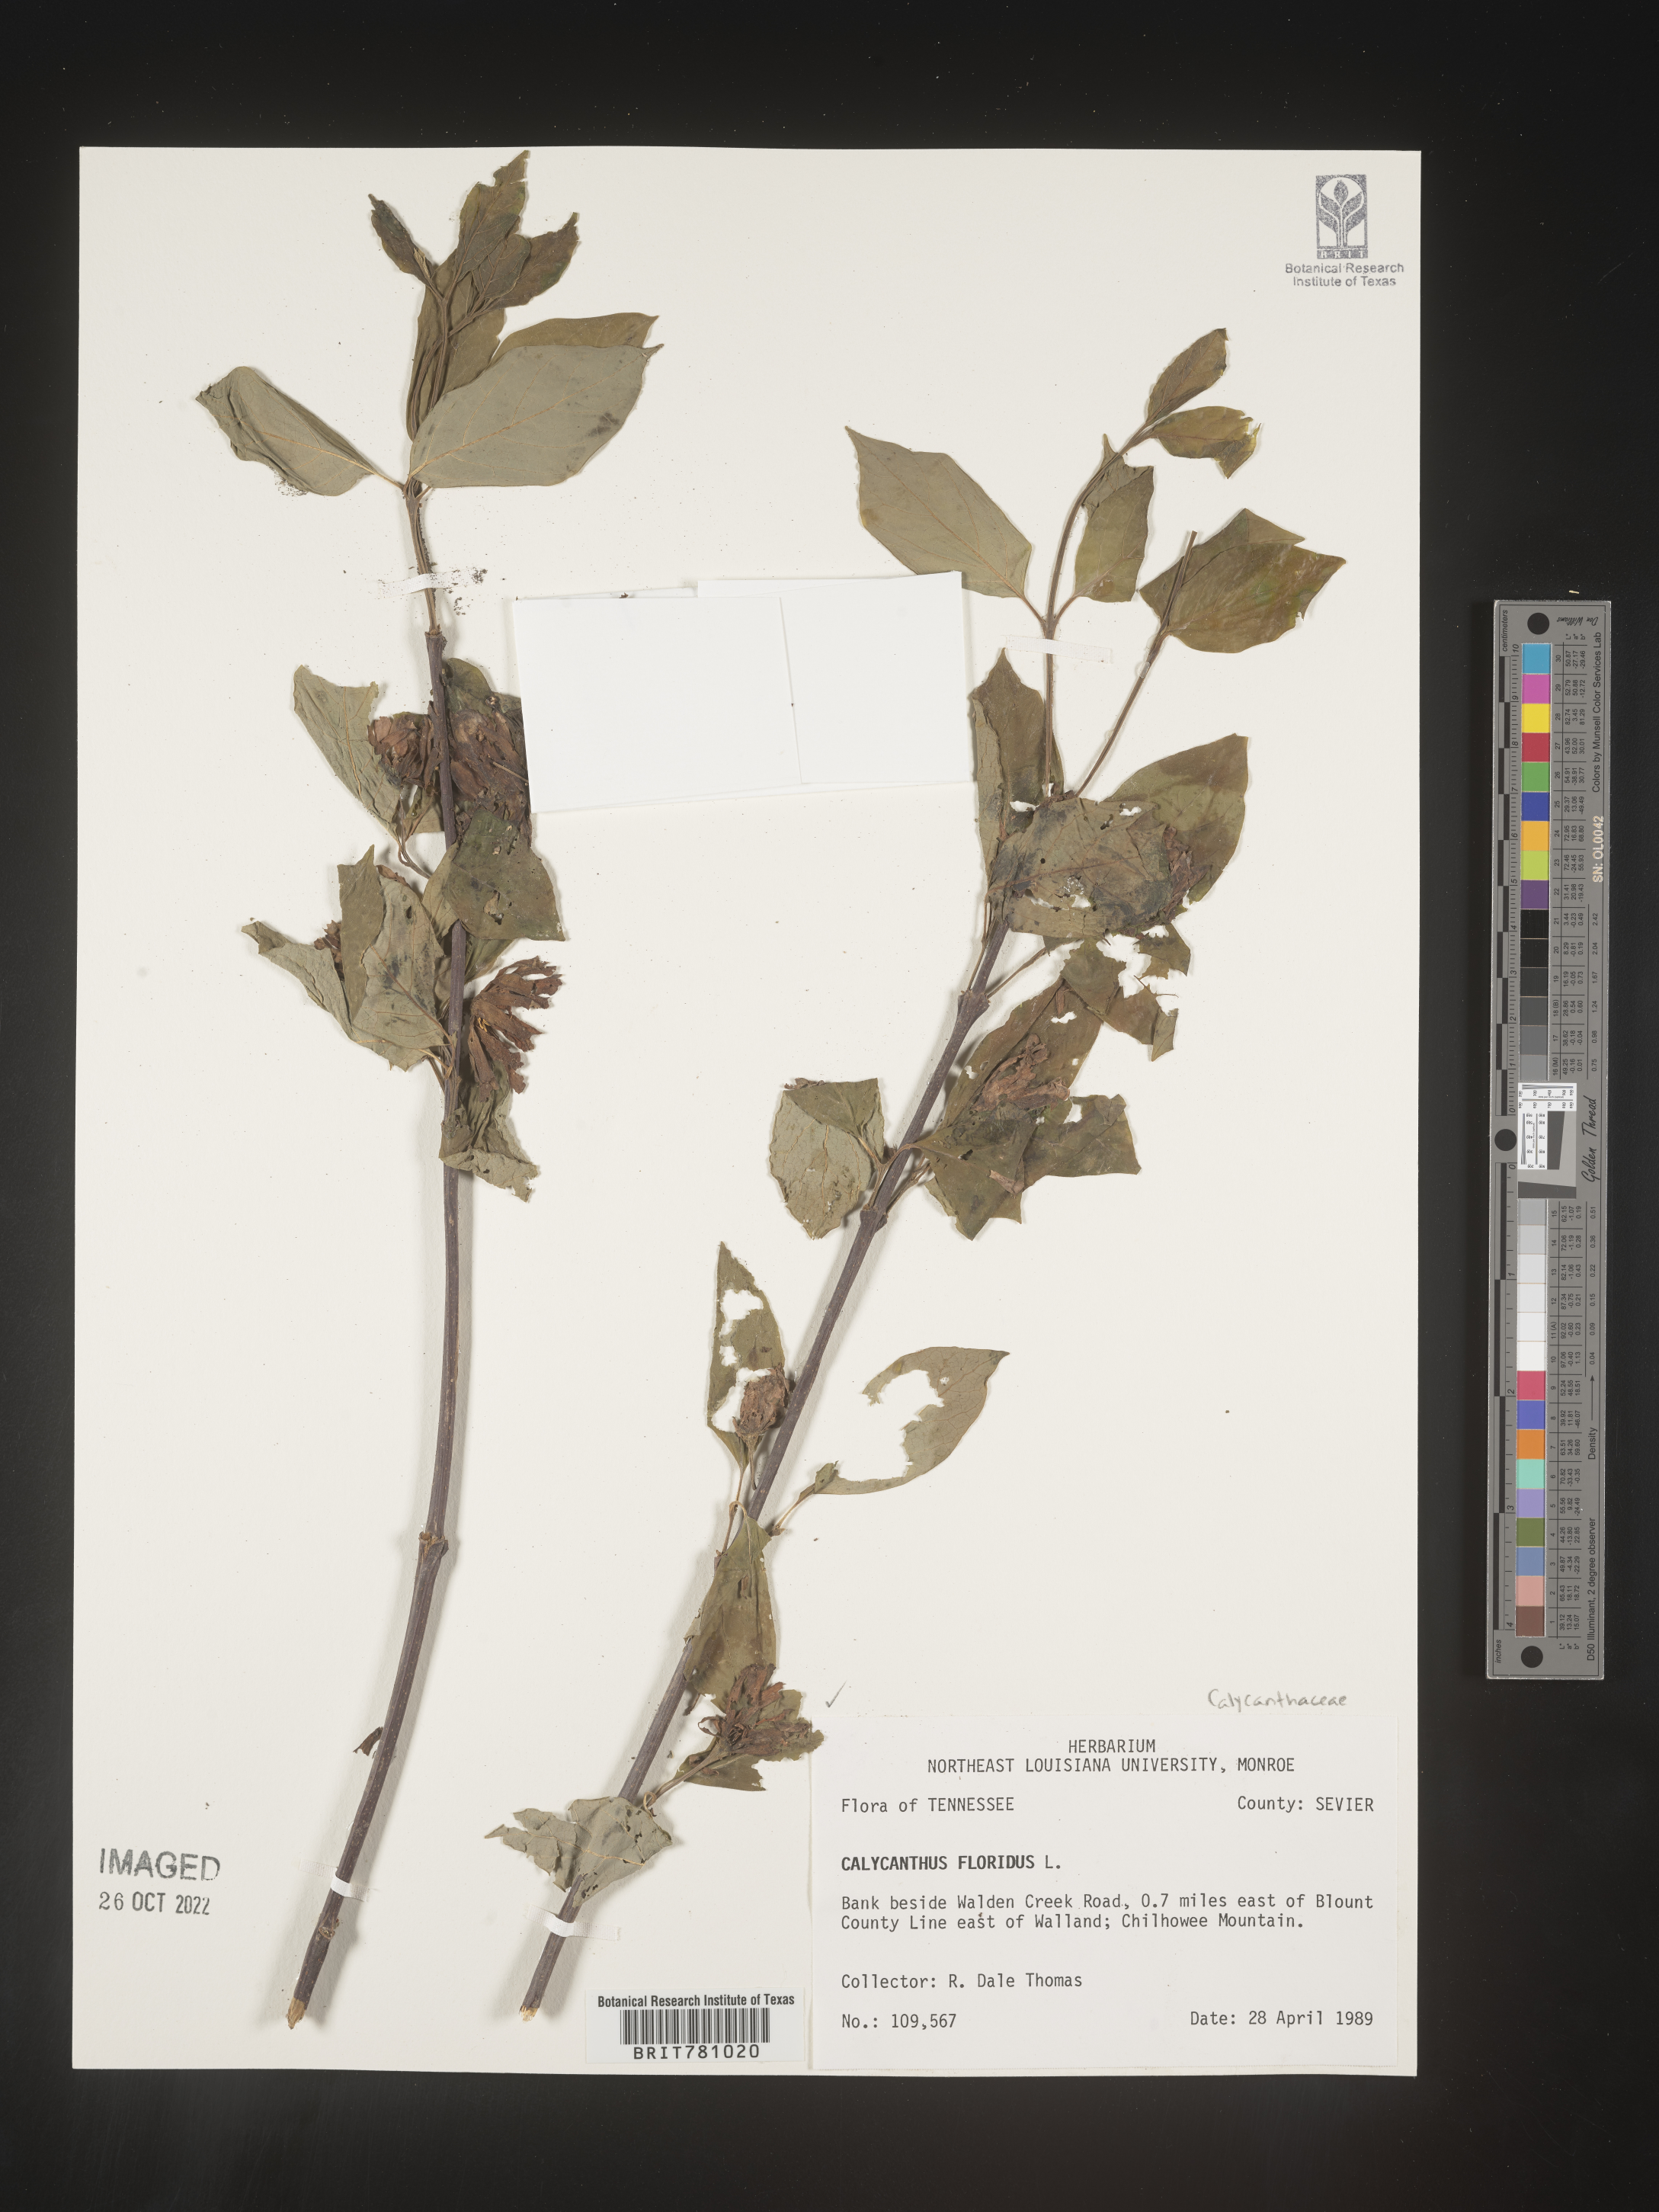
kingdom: Plantae
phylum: Tracheophyta
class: Magnoliopsida
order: Laurales
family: Calycanthaceae
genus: Calycanthus
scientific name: Calycanthus floridus
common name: Carolina-allspice
